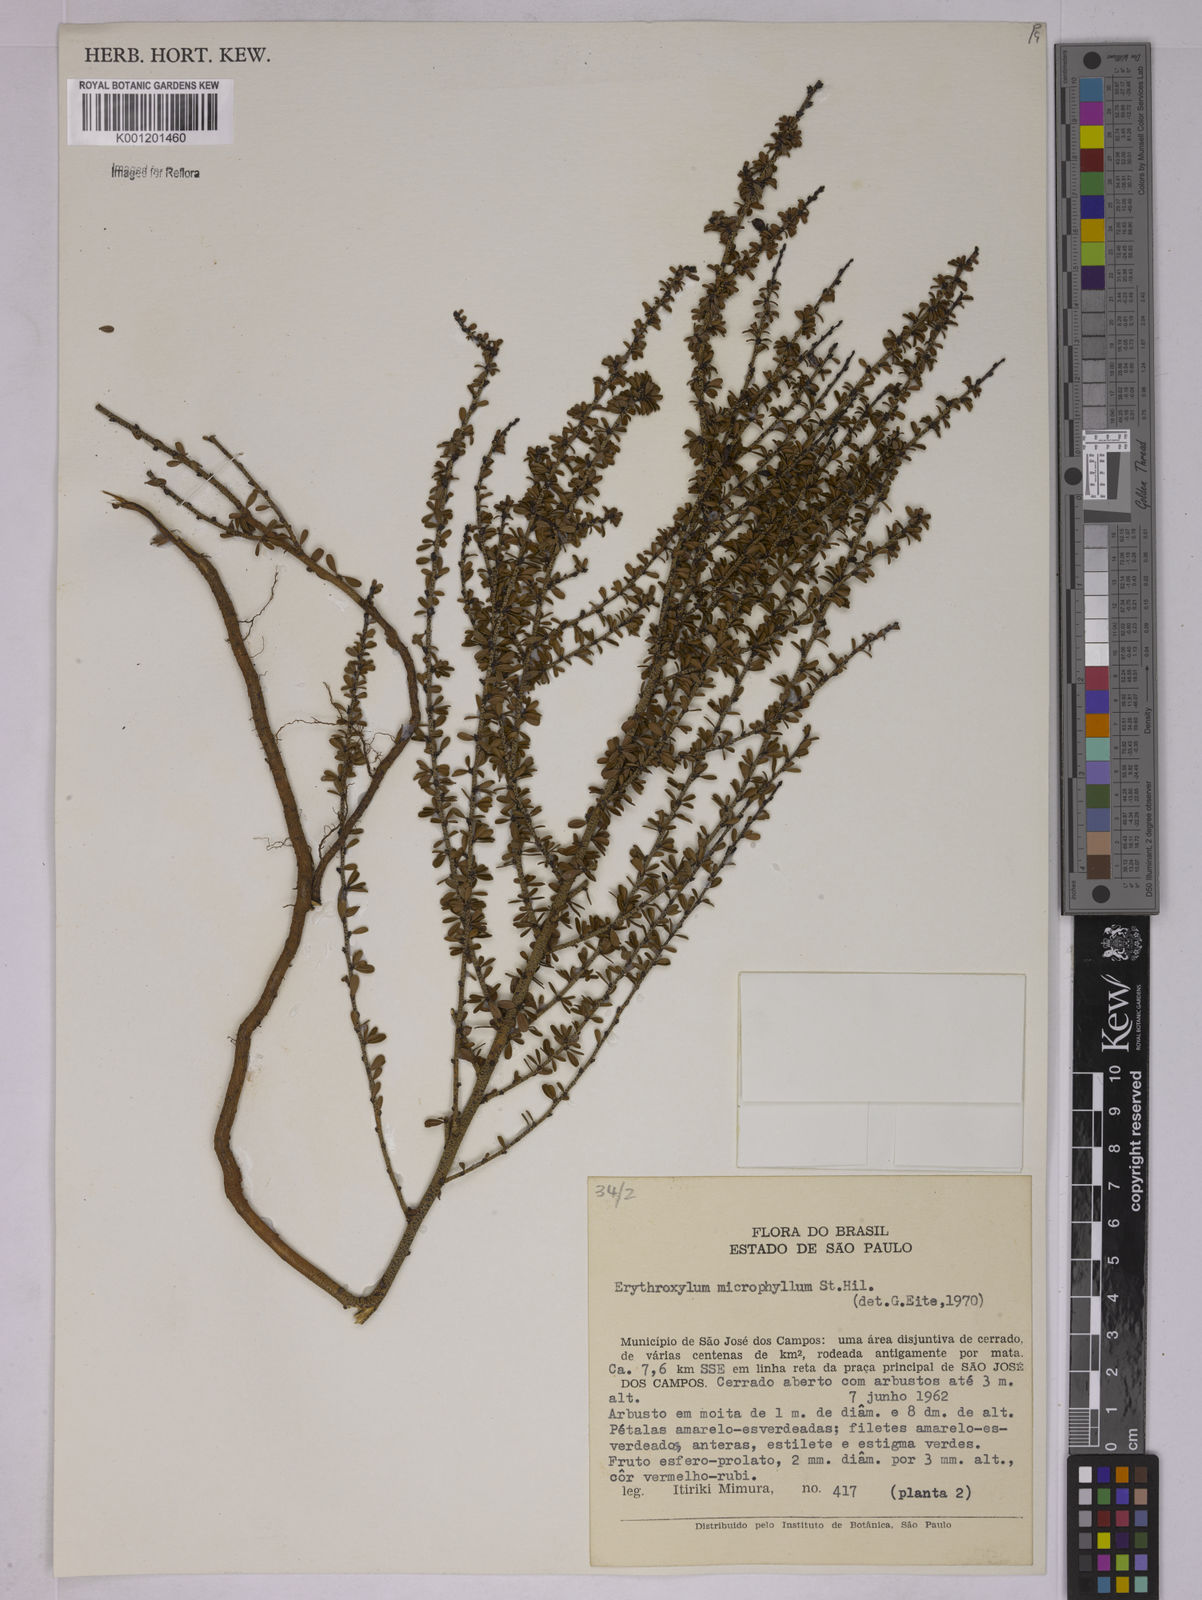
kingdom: Plantae
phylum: Tracheophyta
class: Magnoliopsida
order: Malpighiales
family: Erythroxylaceae
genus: Erythroxylum
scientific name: Erythroxylum microphyllum
